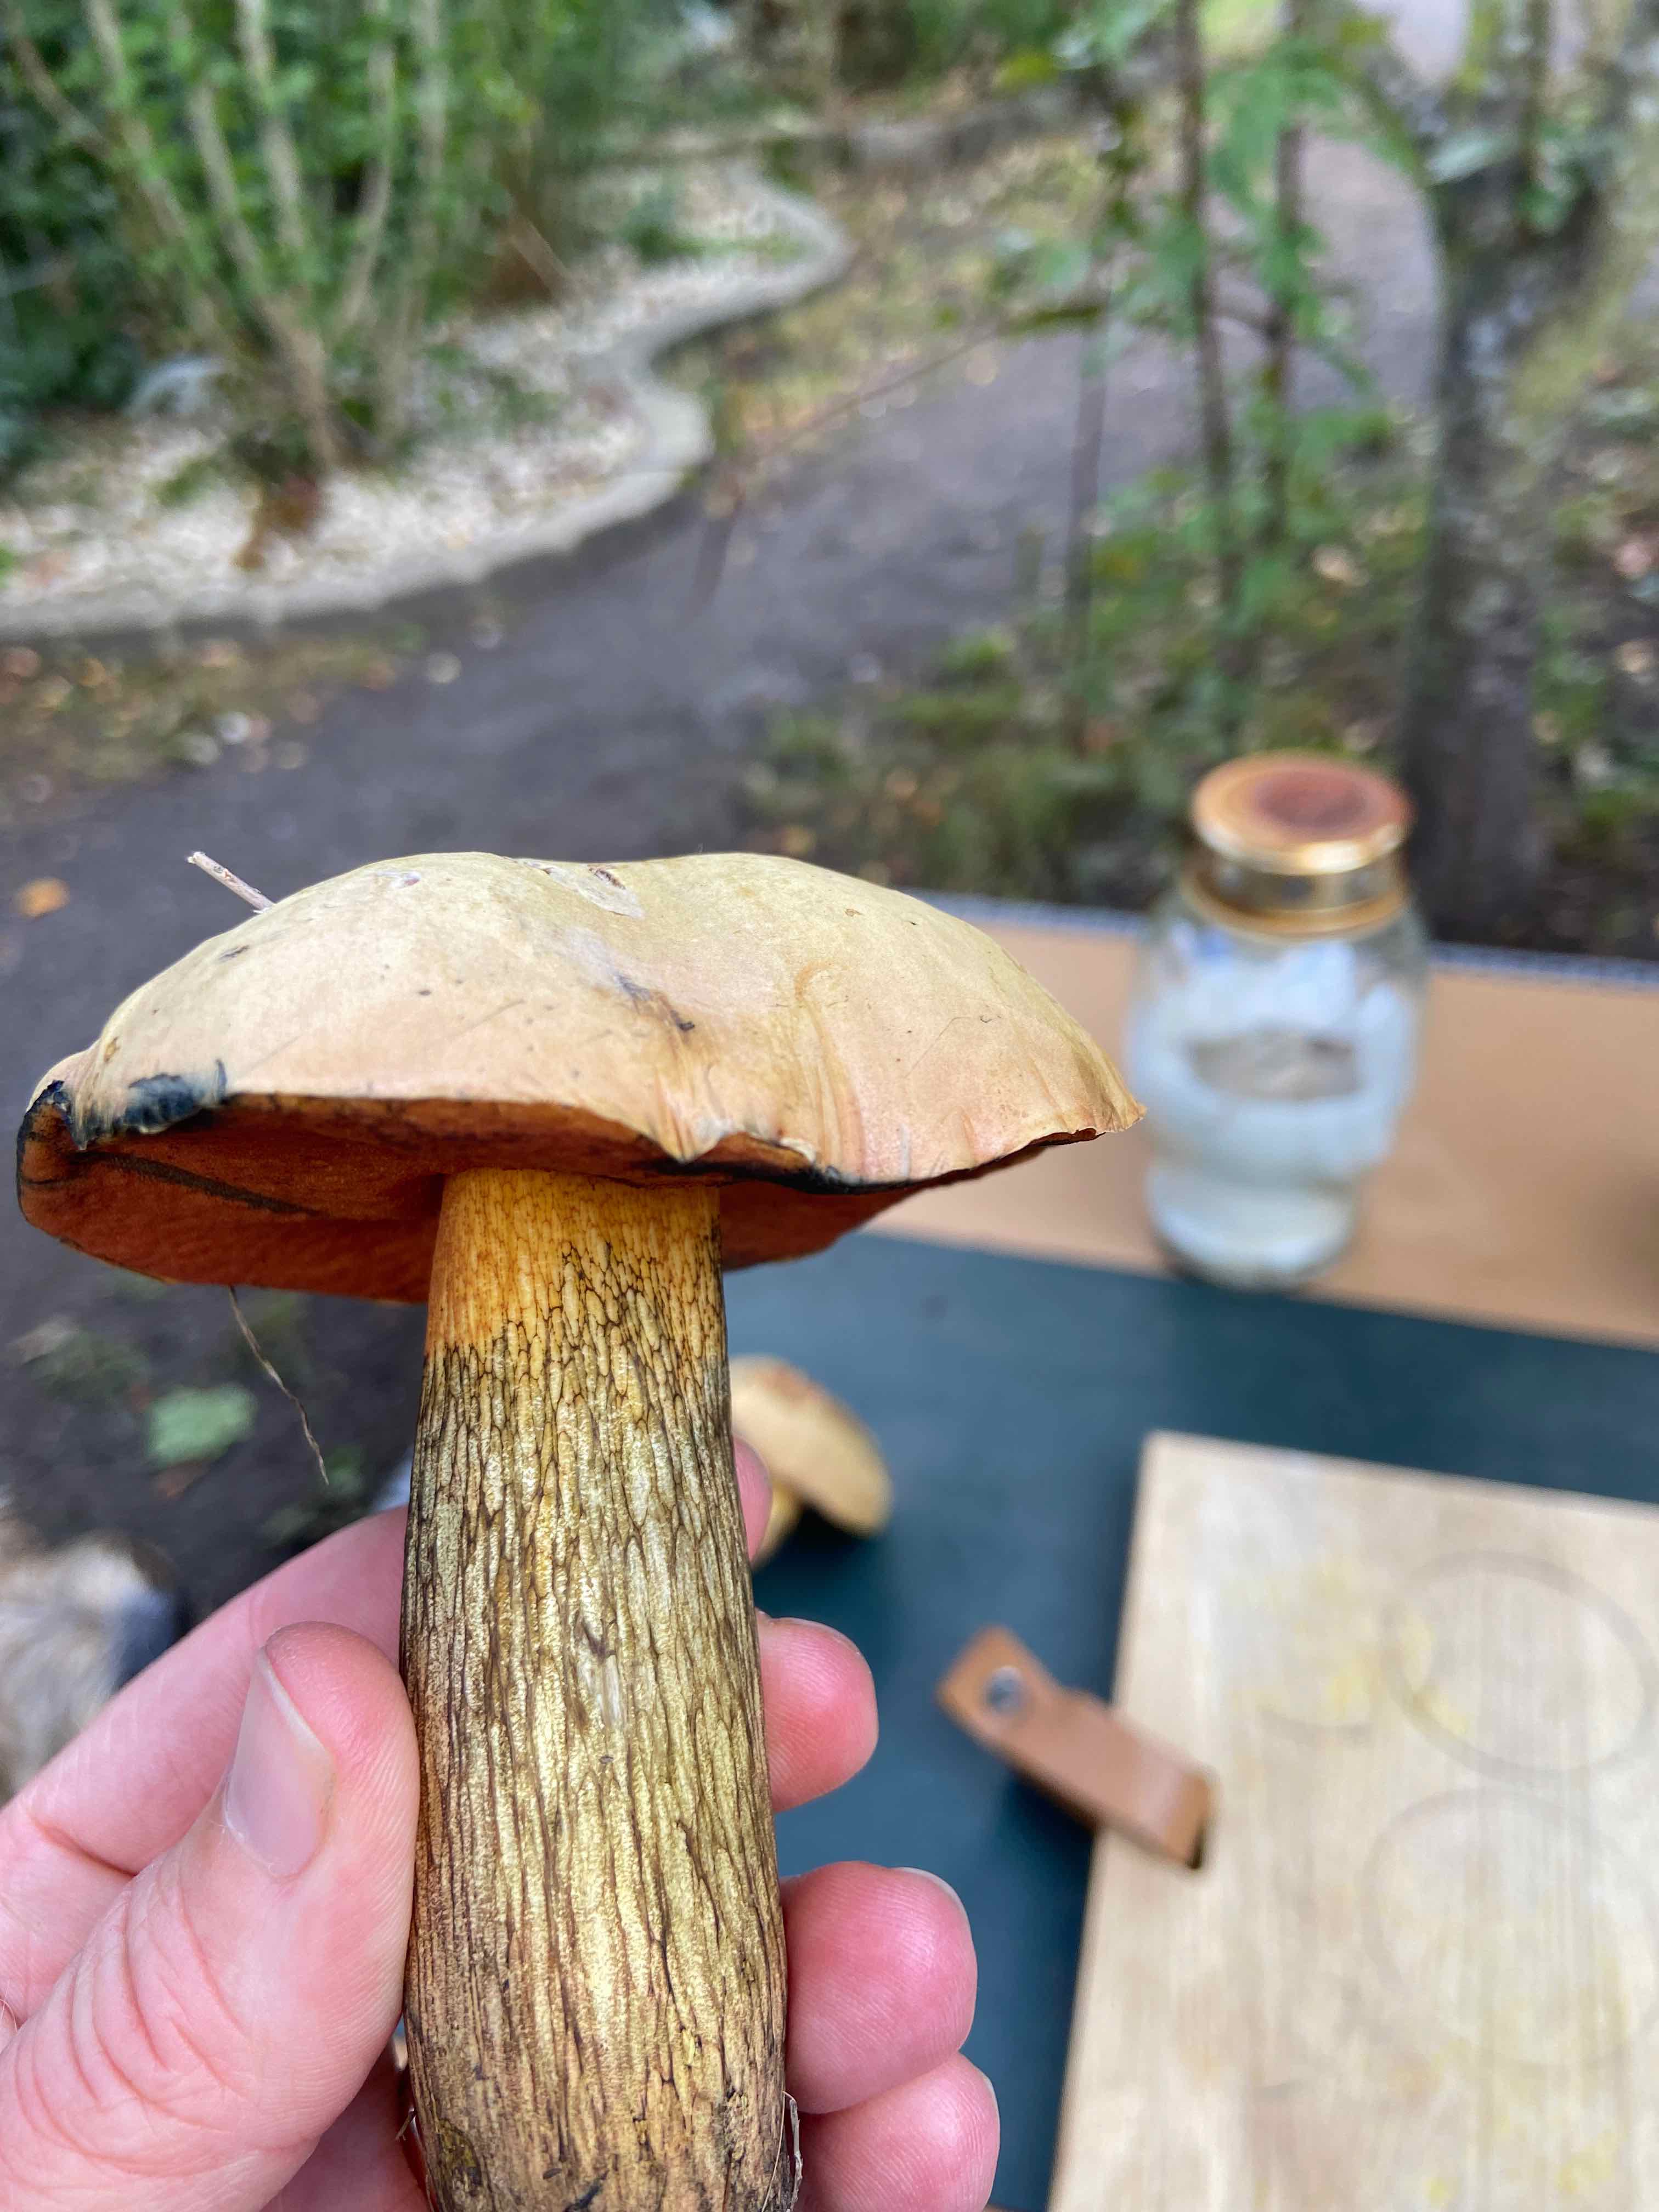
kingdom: Fungi
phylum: Basidiomycota
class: Agaricomycetes
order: Boletales
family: Boletaceae
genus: Suillellus
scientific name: Suillellus luridus
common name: netstokket indigorørhat
